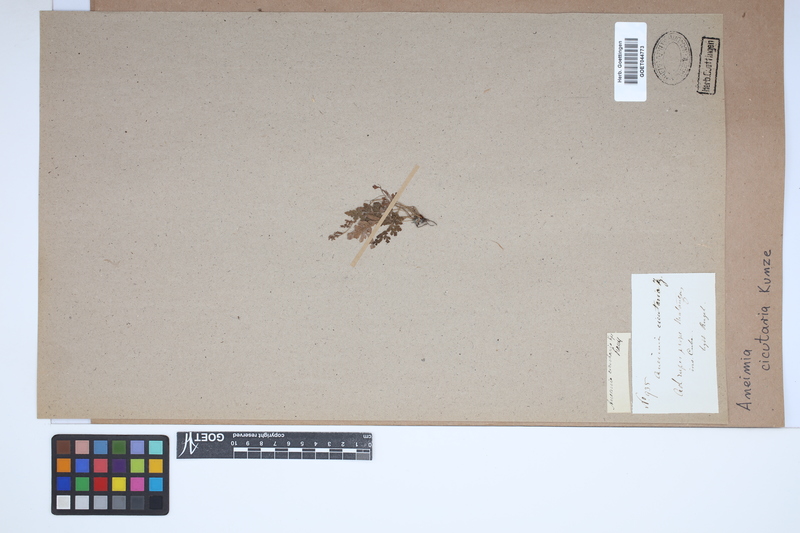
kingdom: Plantae
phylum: Tracheophyta
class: Polypodiopsida
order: Schizaeales
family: Anemiaceae
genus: Anemia
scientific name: Anemia cicutaria
